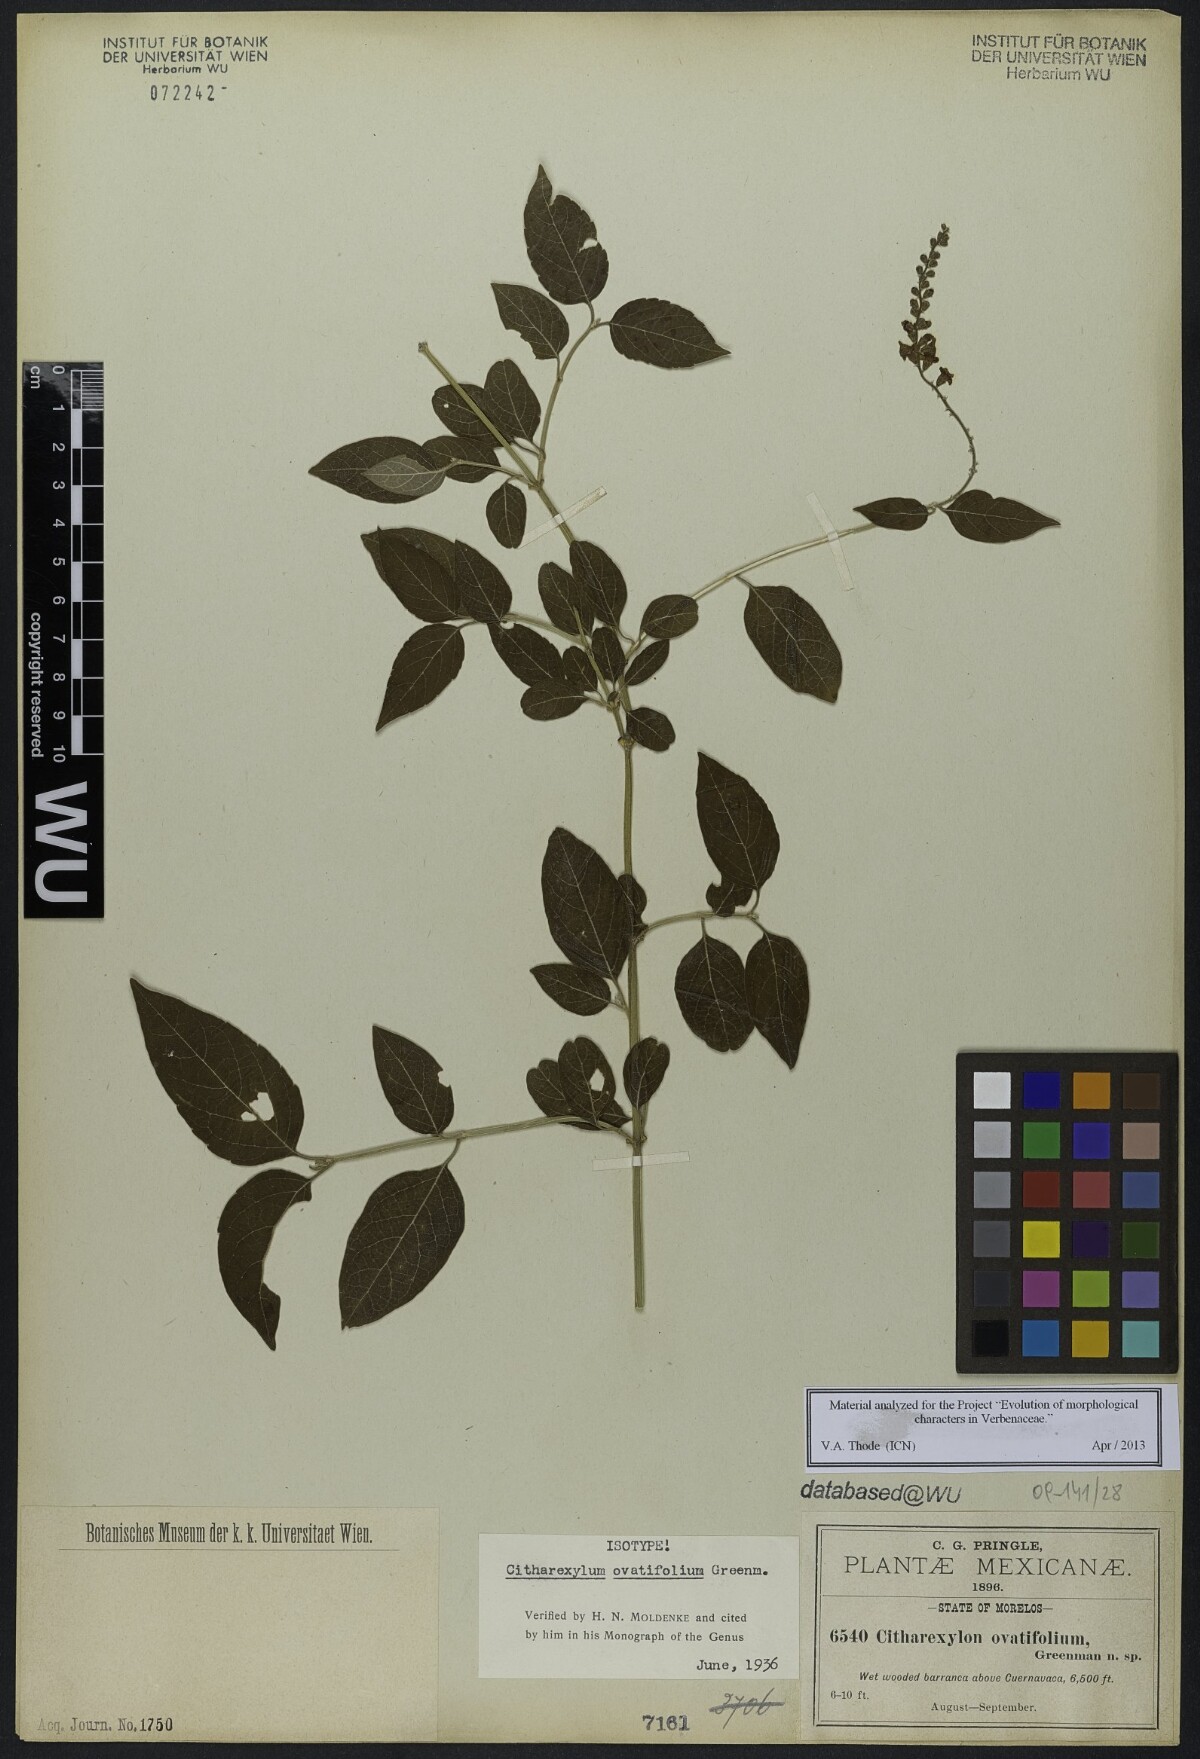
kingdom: Plantae
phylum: Tracheophyta
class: Magnoliopsida
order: Lamiales
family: Verbenaceae
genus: Citharexylum
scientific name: Citharexylum ovatifolium
